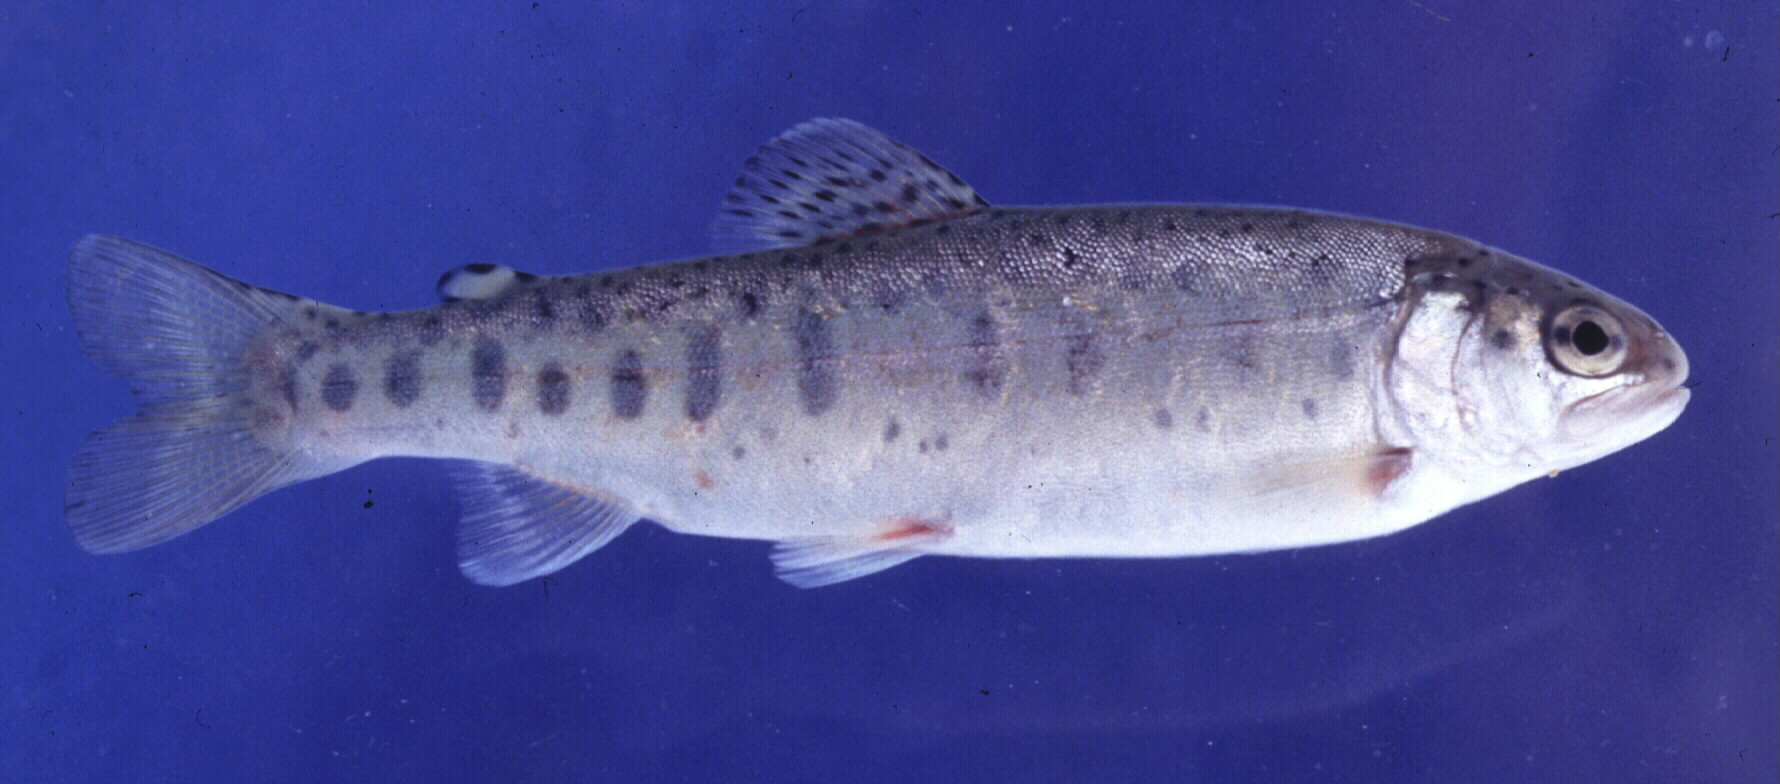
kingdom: Animalia
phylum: Chordata
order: Salmoniformes
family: Salmonidae
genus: Oncorhynchus
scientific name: Oncorhynchus mykiss
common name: Rainbow trout
